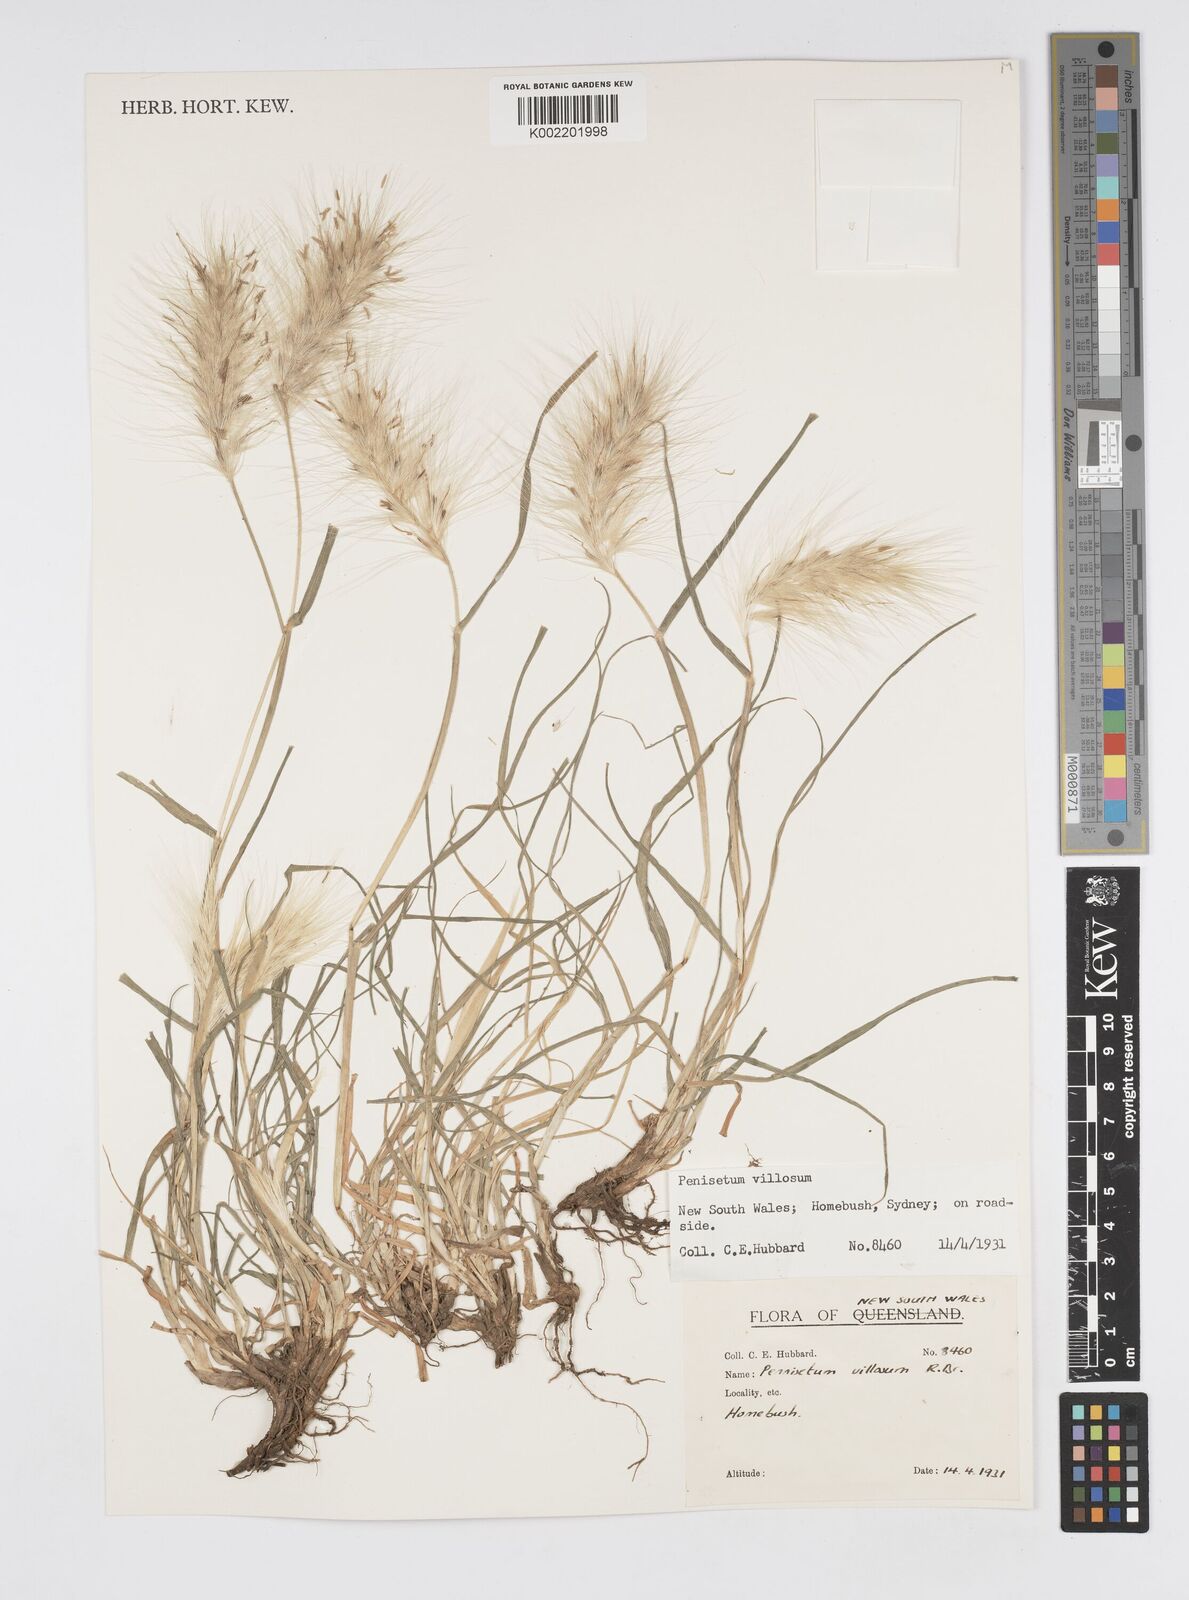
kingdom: Plantae
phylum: Tracheophyta
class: Liliopsida
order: Poales
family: Poaceae
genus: Cenchrus
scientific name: Cenchrus longisetus
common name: Feathertop
